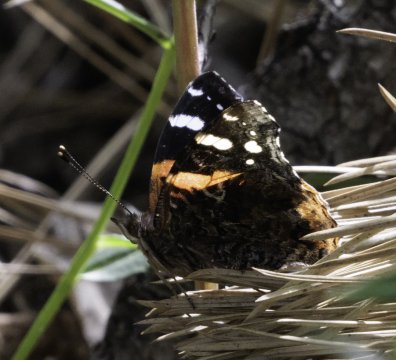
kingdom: Animalia
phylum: Arthropoda
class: Insecta
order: Lepidoptera
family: Nymphalidae
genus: Vanessa
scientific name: Vanessa atalanta
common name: Red Admiral
